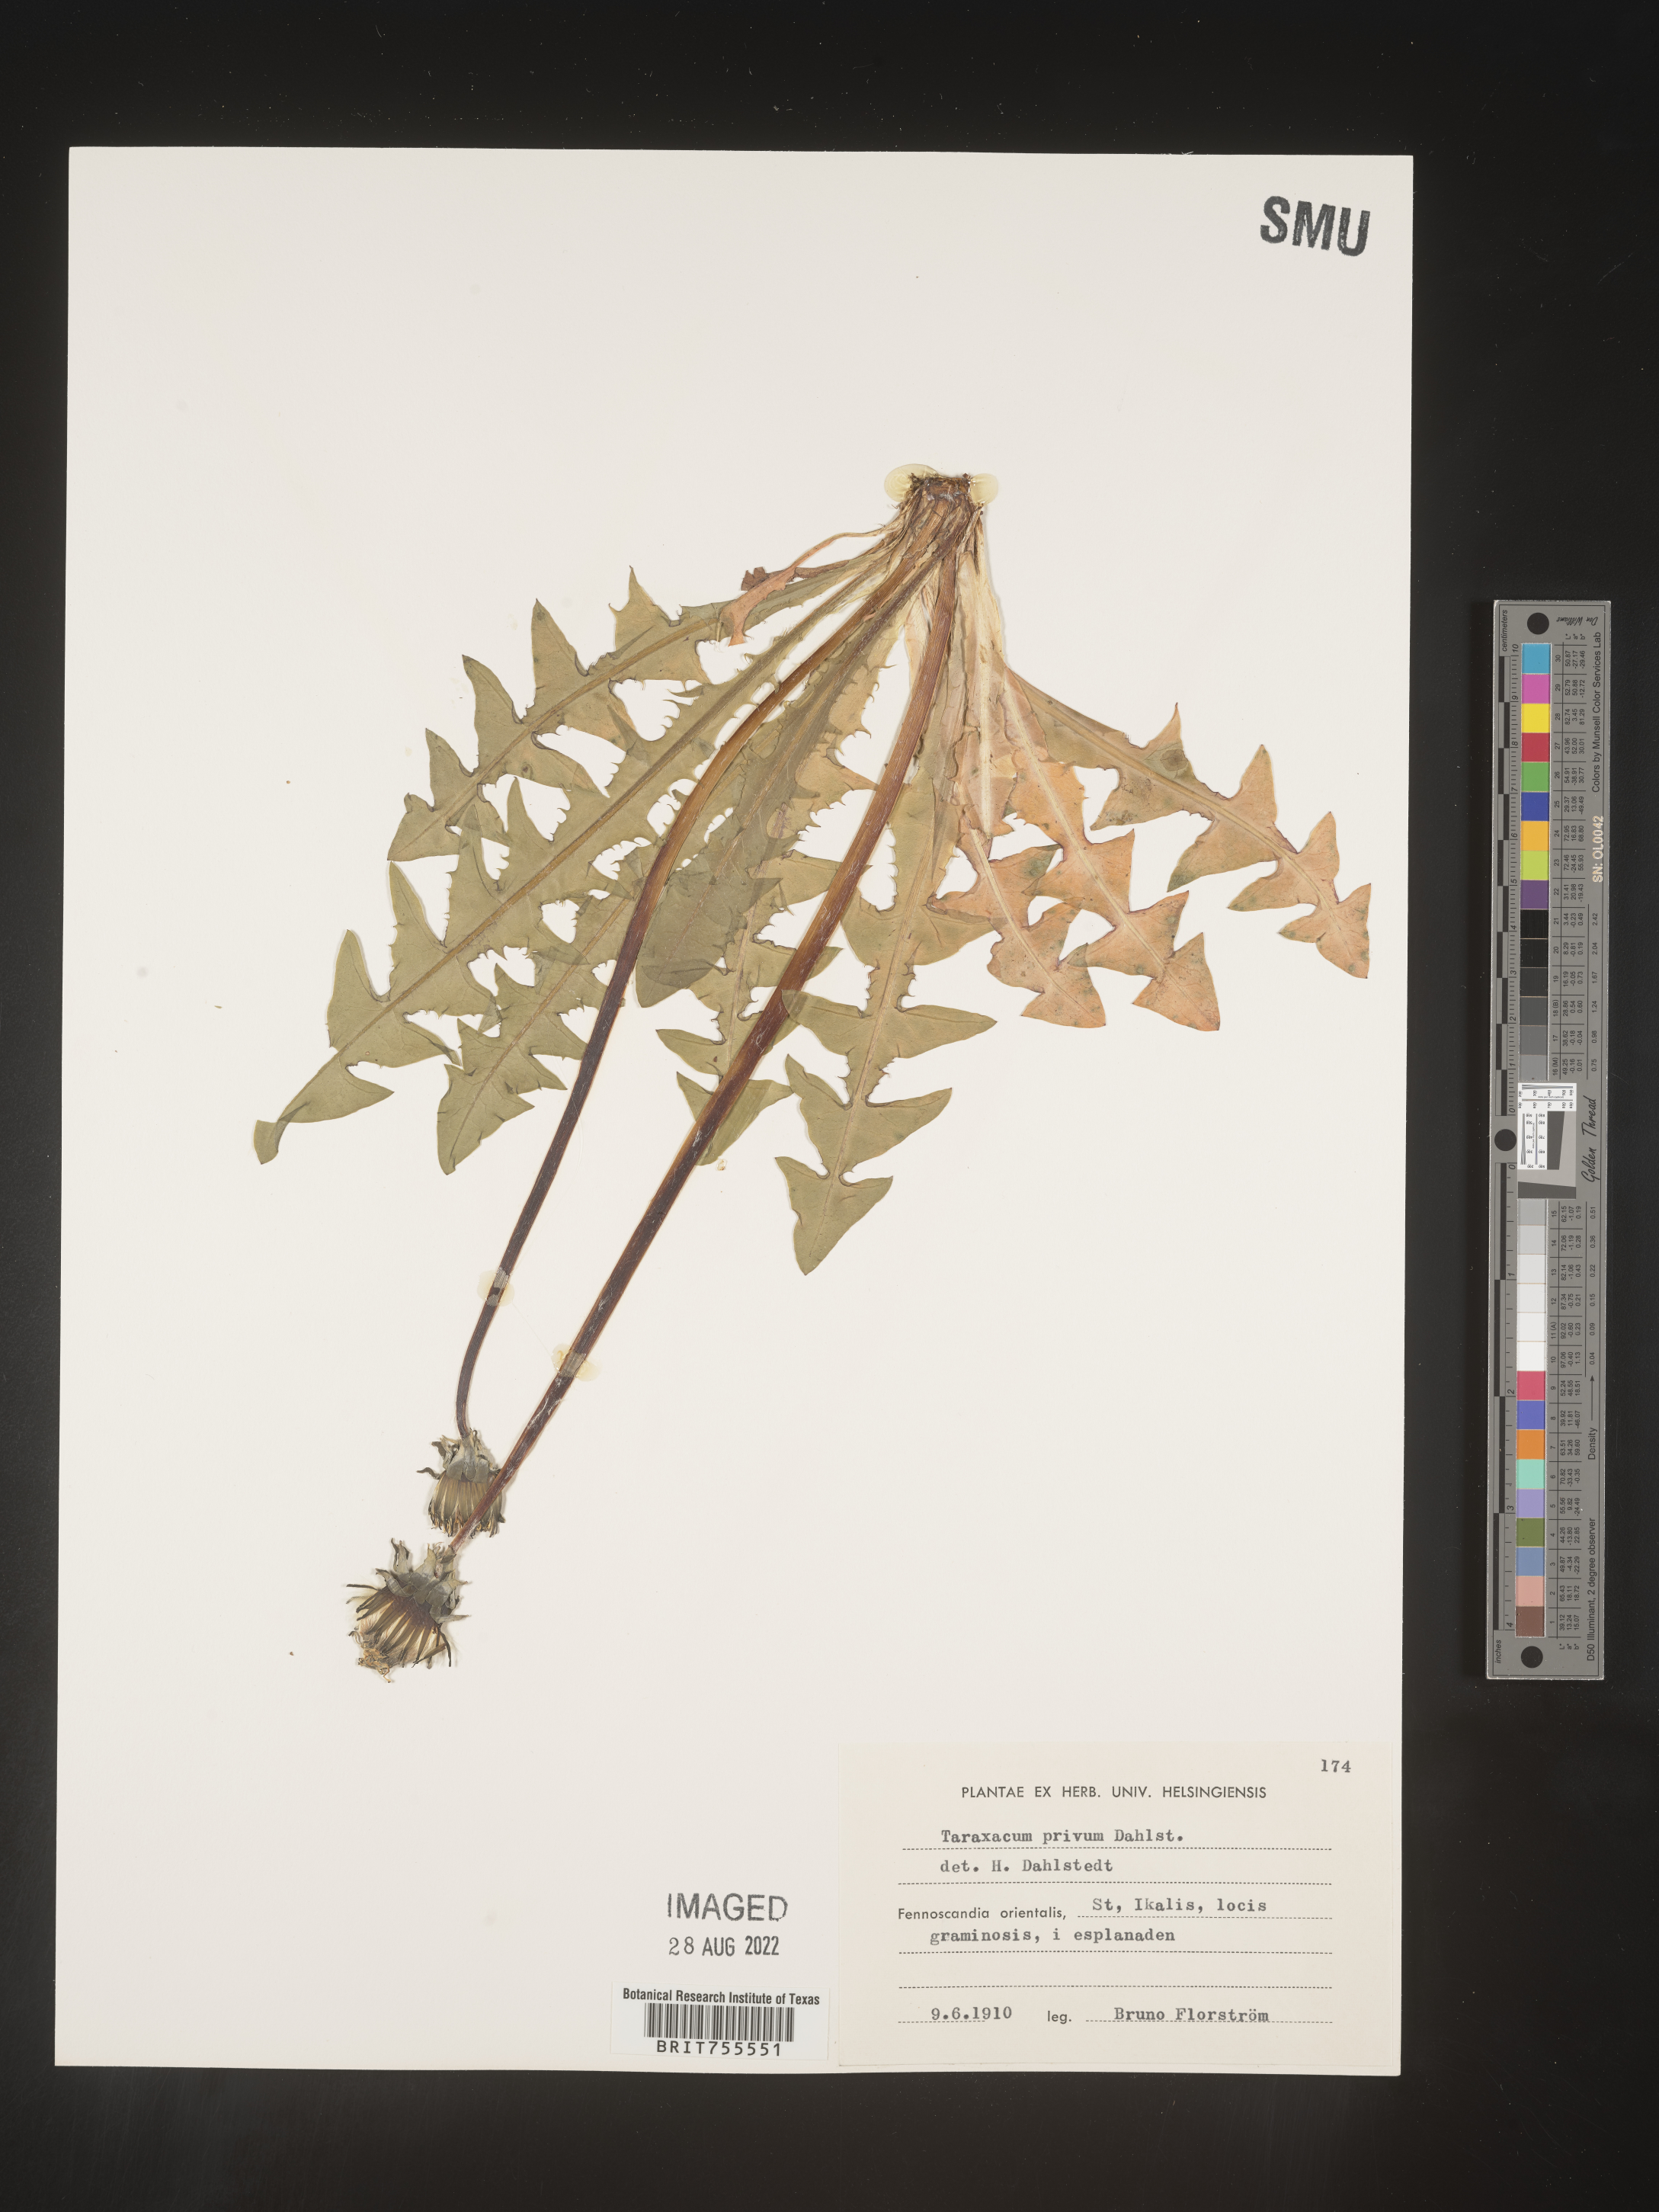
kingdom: Plantae
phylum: Tracheophyta
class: Magnoliopsida
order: Asterales
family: Asteraceae
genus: Taraxacum
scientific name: Taraxacum
